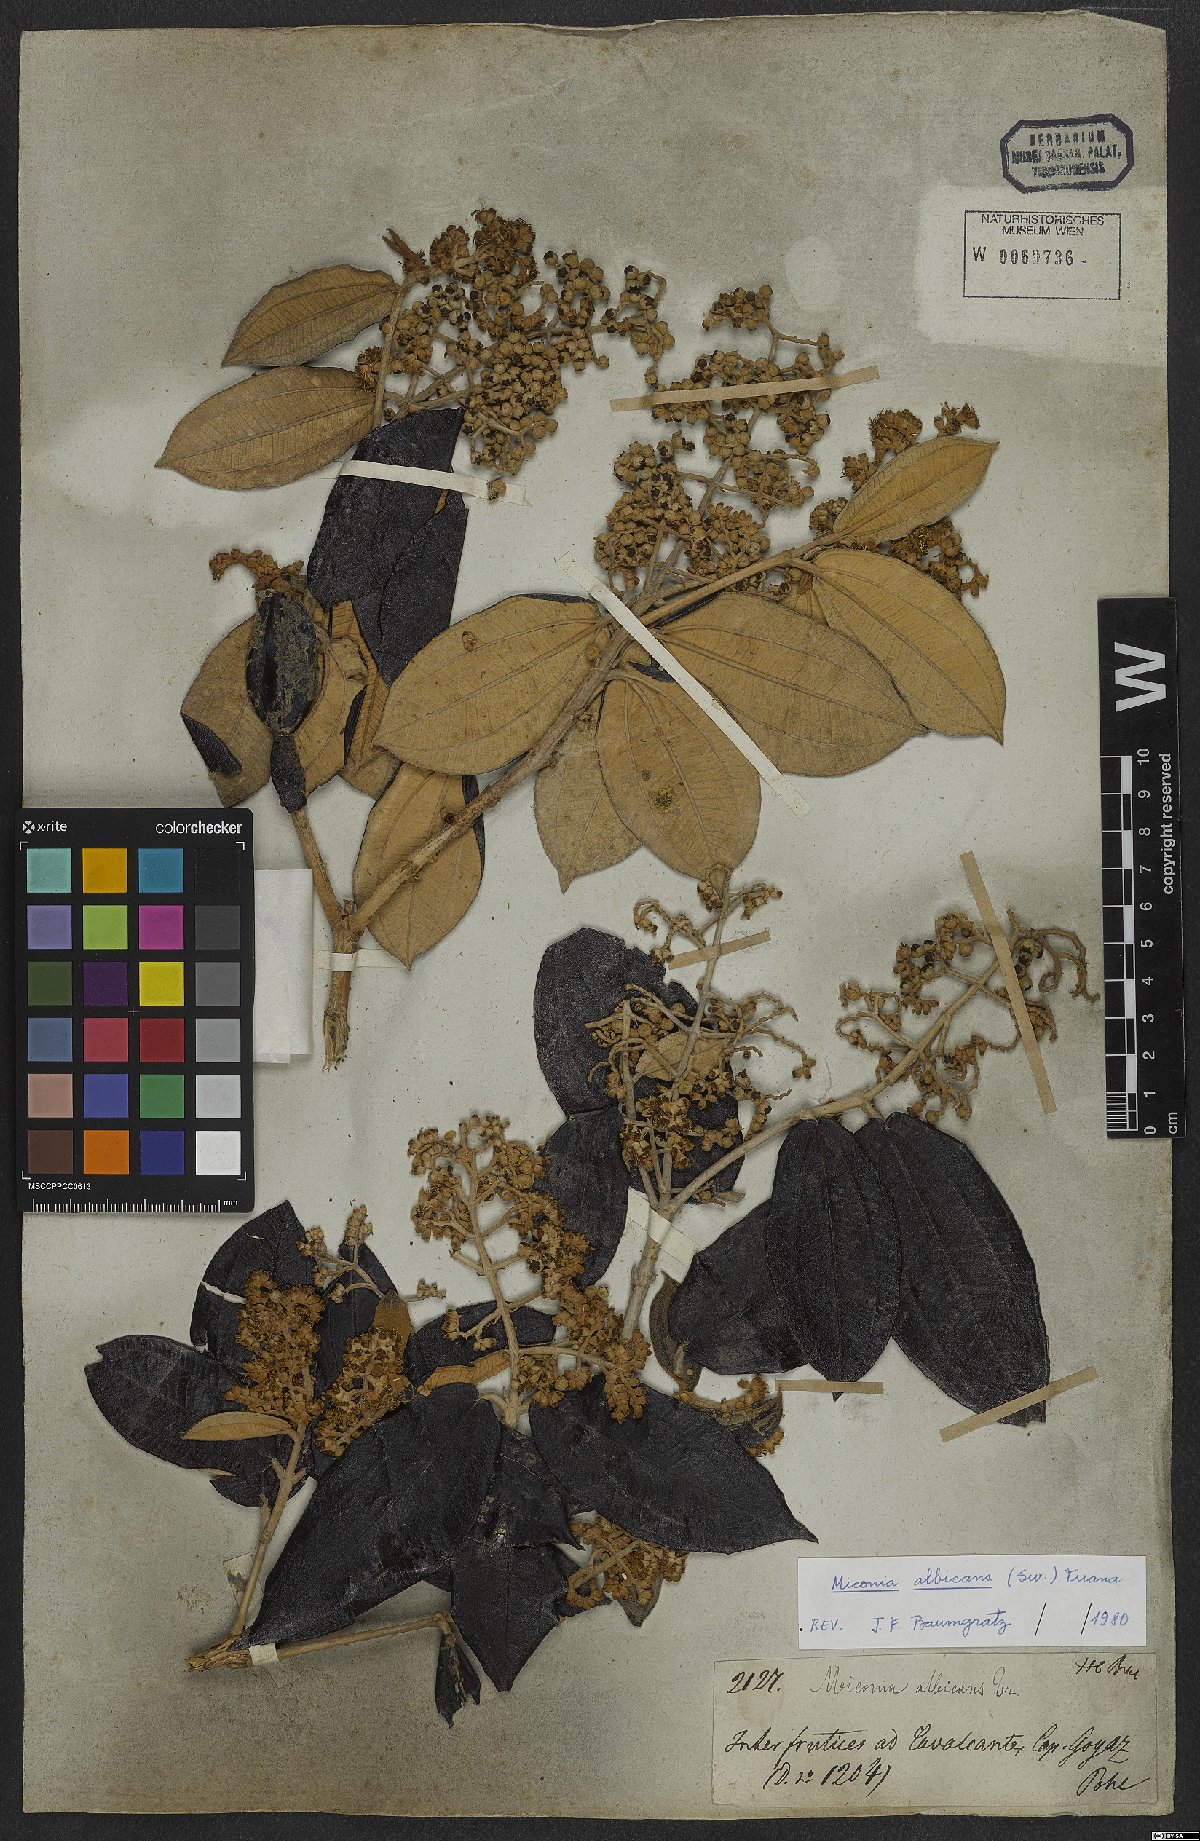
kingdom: Plantae
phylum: Tracheophyta
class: Magnoliopsida
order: Myrtales
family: Melastomataceae
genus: Miconia
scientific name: Miconia albicans
